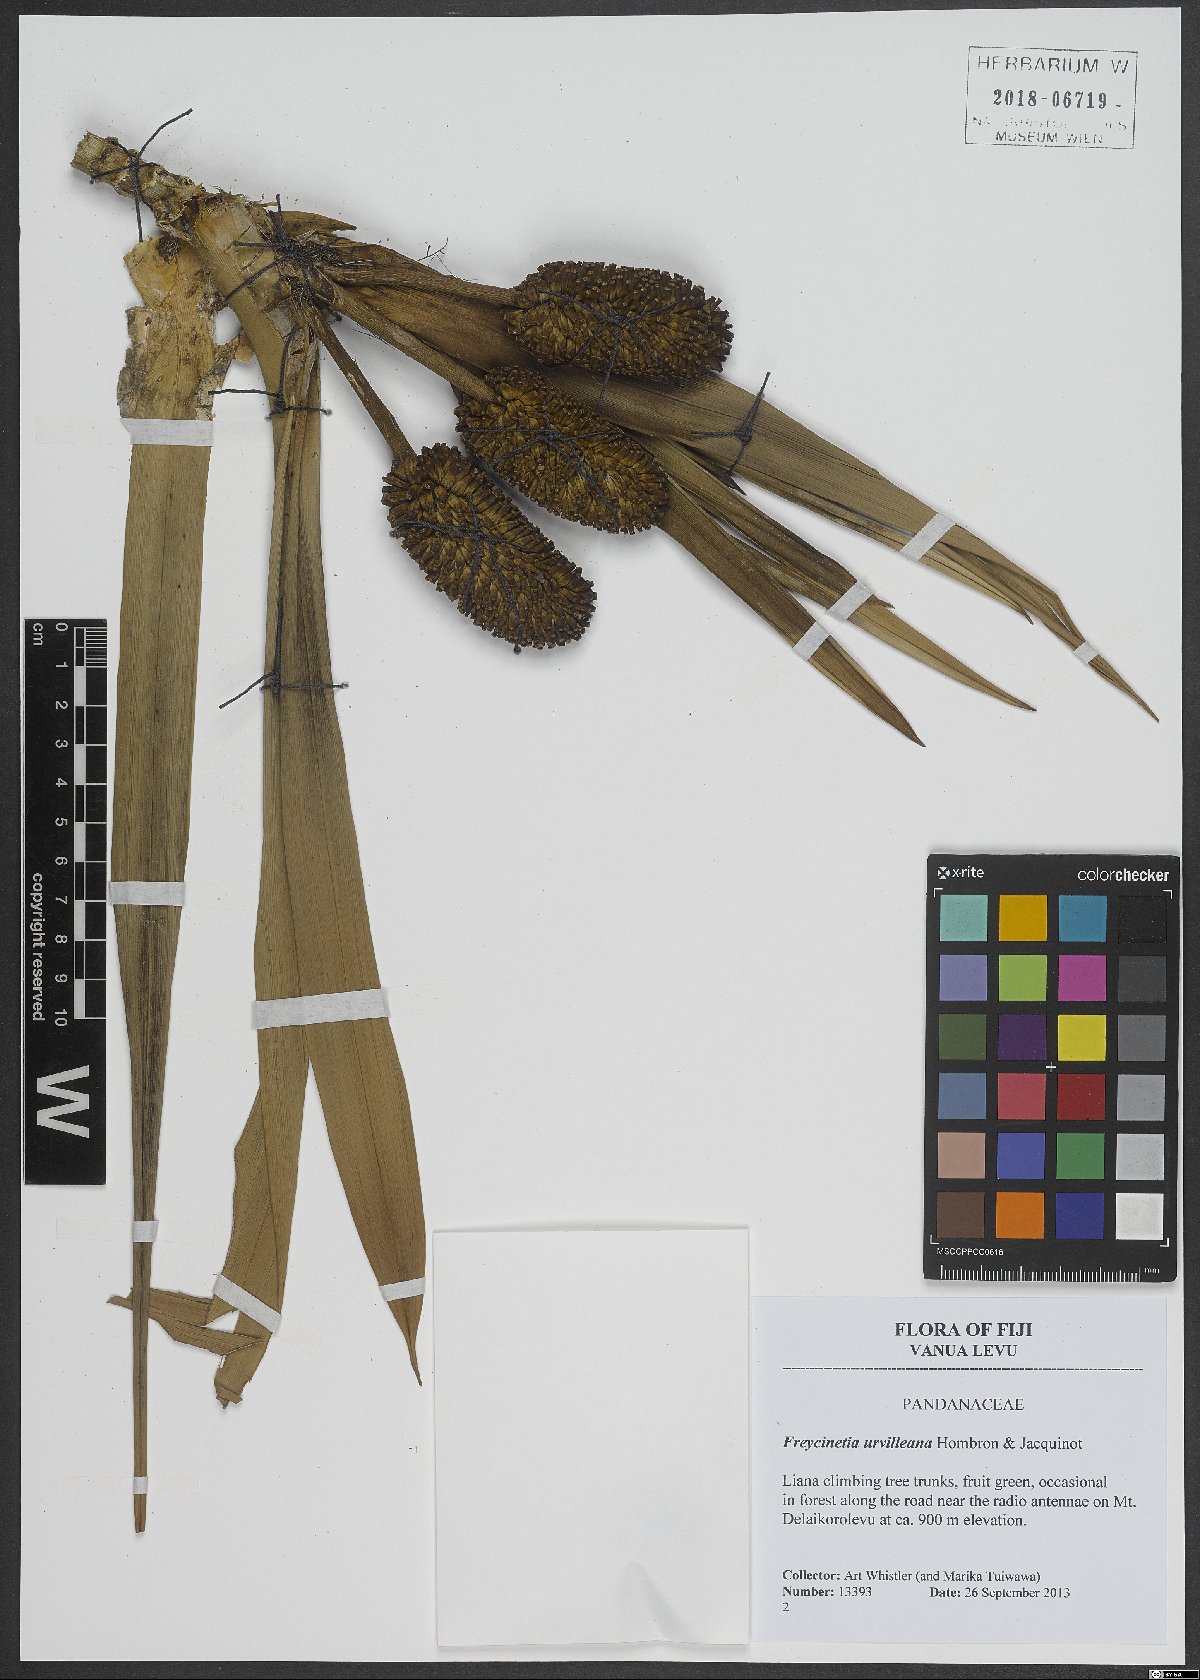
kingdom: Plantae
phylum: Tracheophyta
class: Liliopsida
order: Pandanales
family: Pandanaceae
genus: Freycinetia
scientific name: Freycinetia urvilleana
